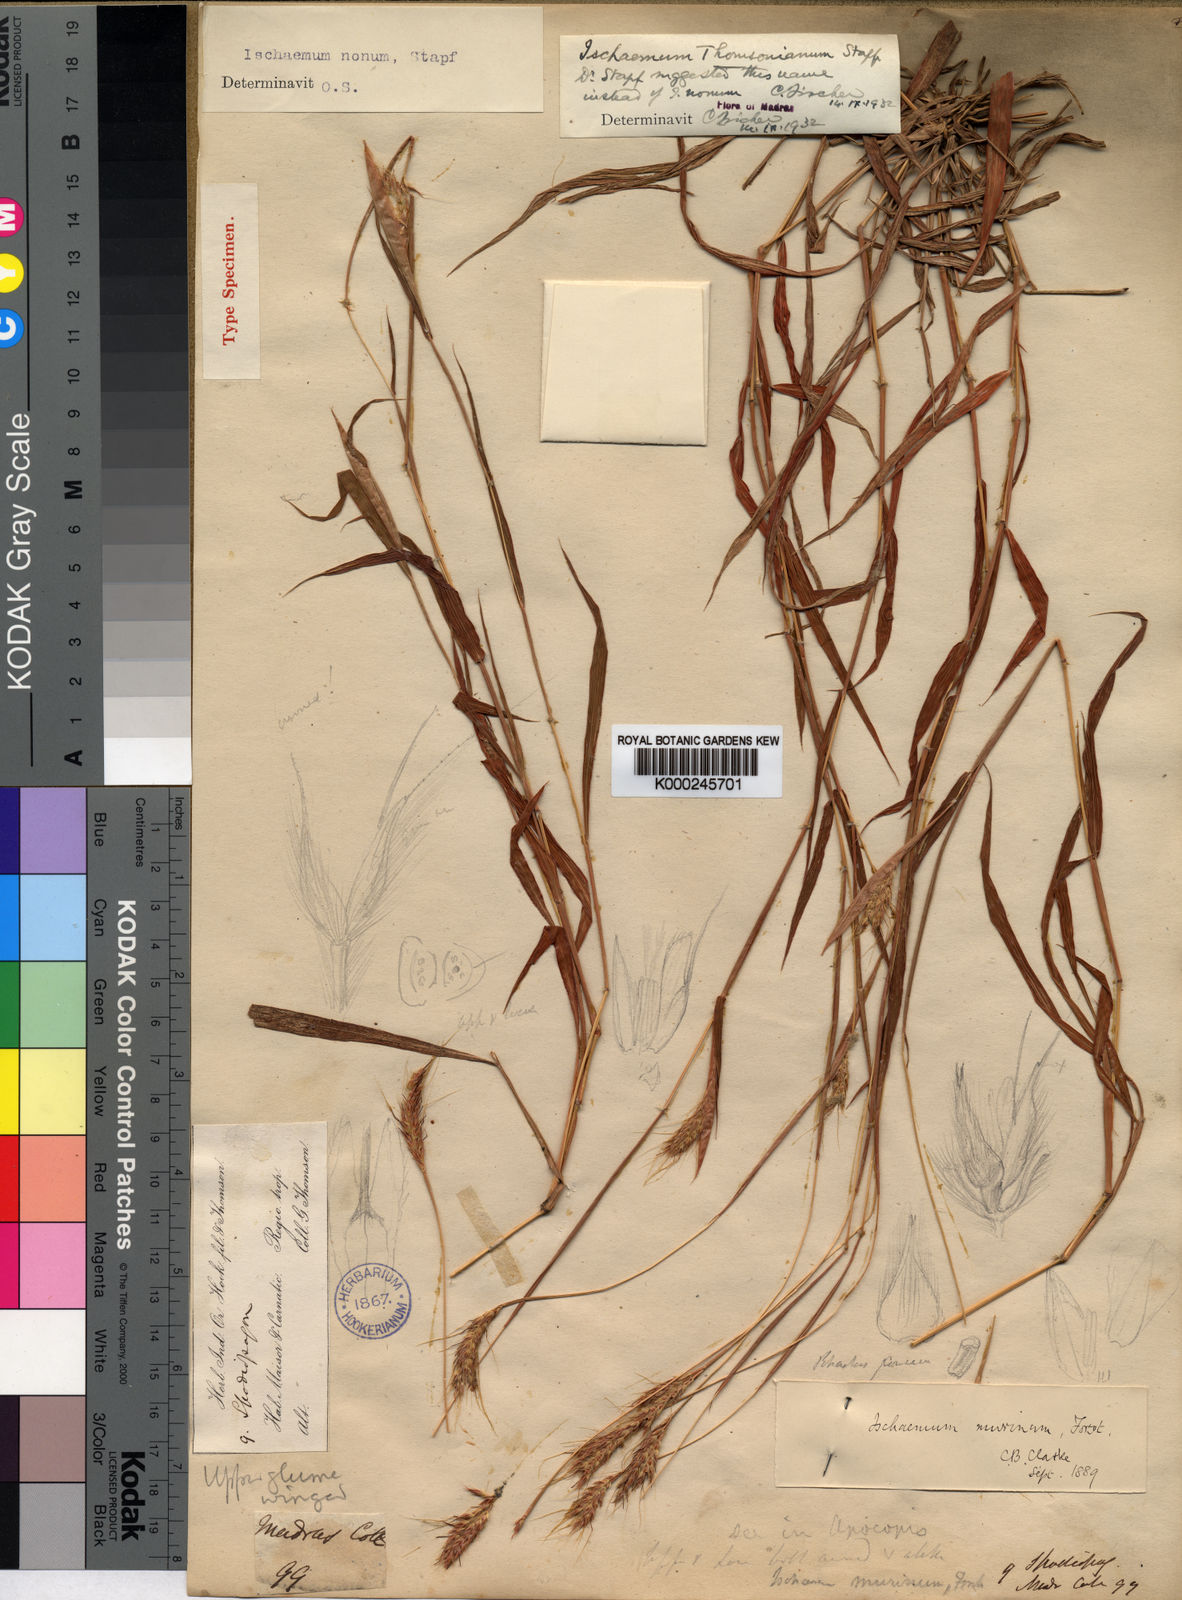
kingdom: Plantae
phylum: Tracheophyta
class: Liliopsida
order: Poales
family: Poaceae
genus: Ischaemum
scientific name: Ischaemum thomsonianum
